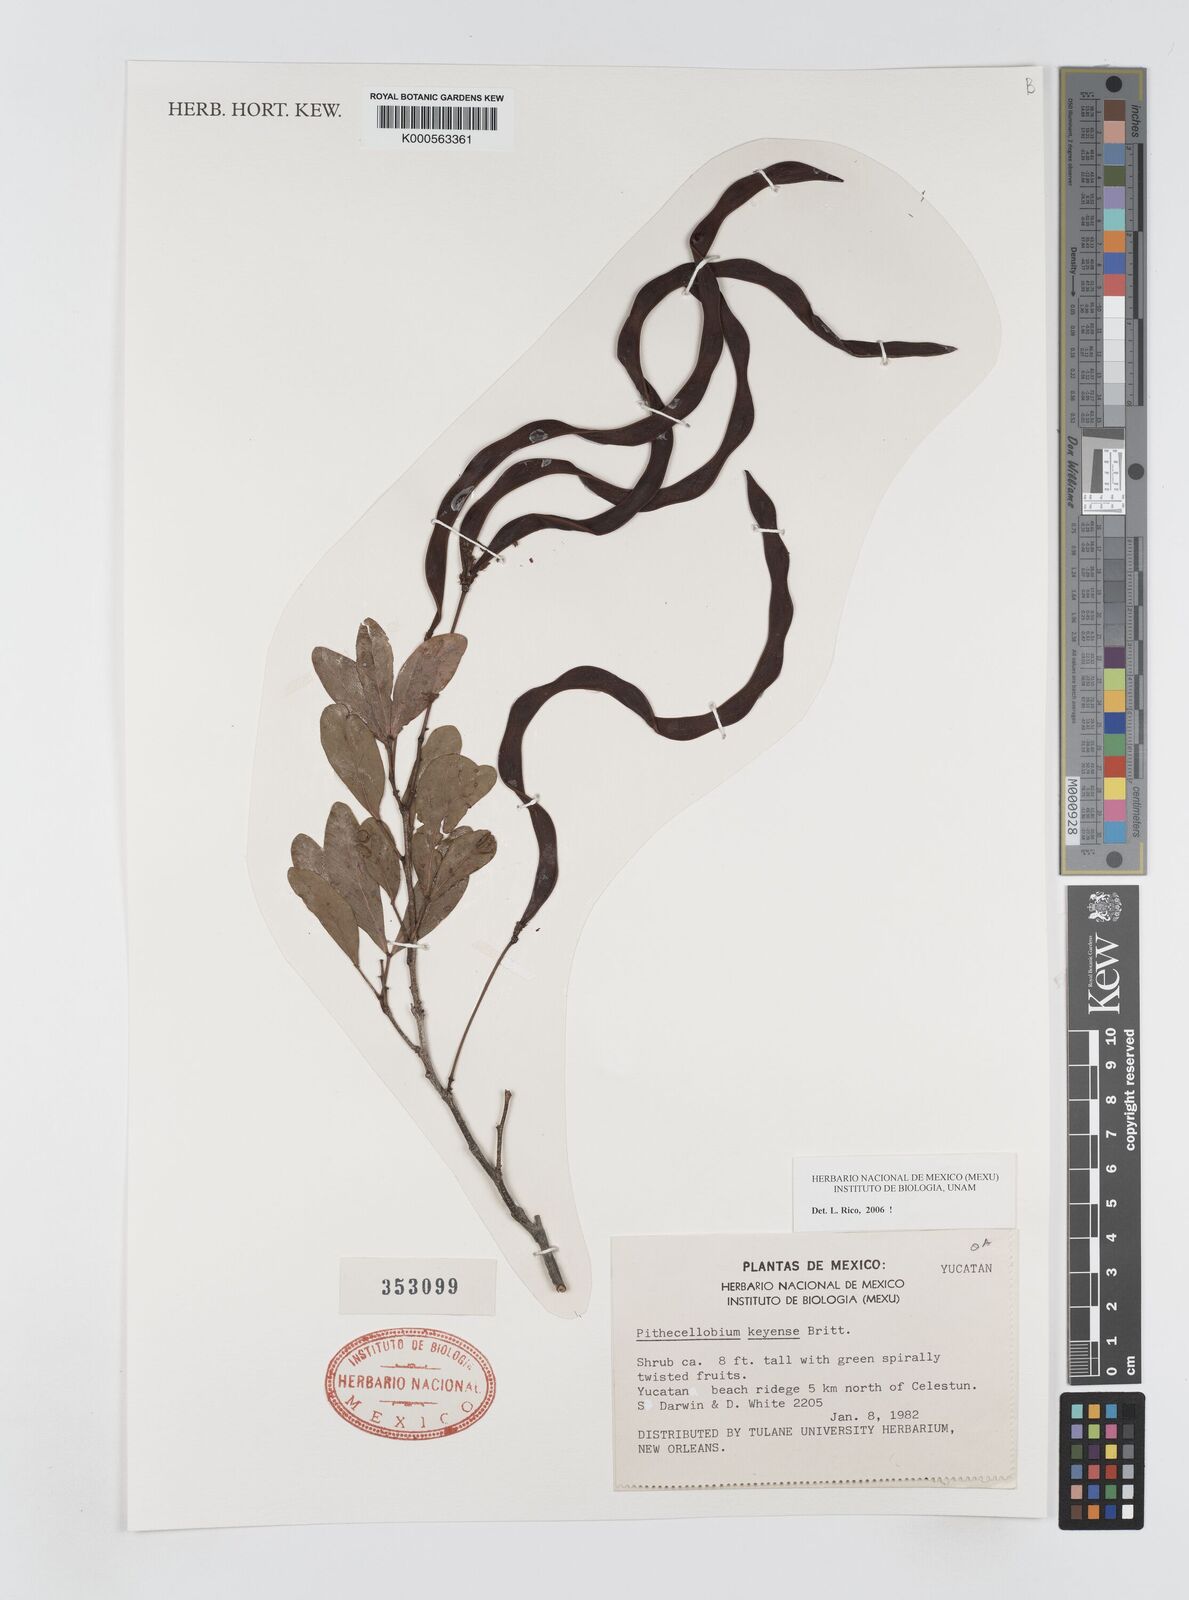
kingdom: Plantae
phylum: Tracheophyta
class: Magnoliopsida
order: Fabales
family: Fabaceae
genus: Pithecellobium
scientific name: Pithecellobium
